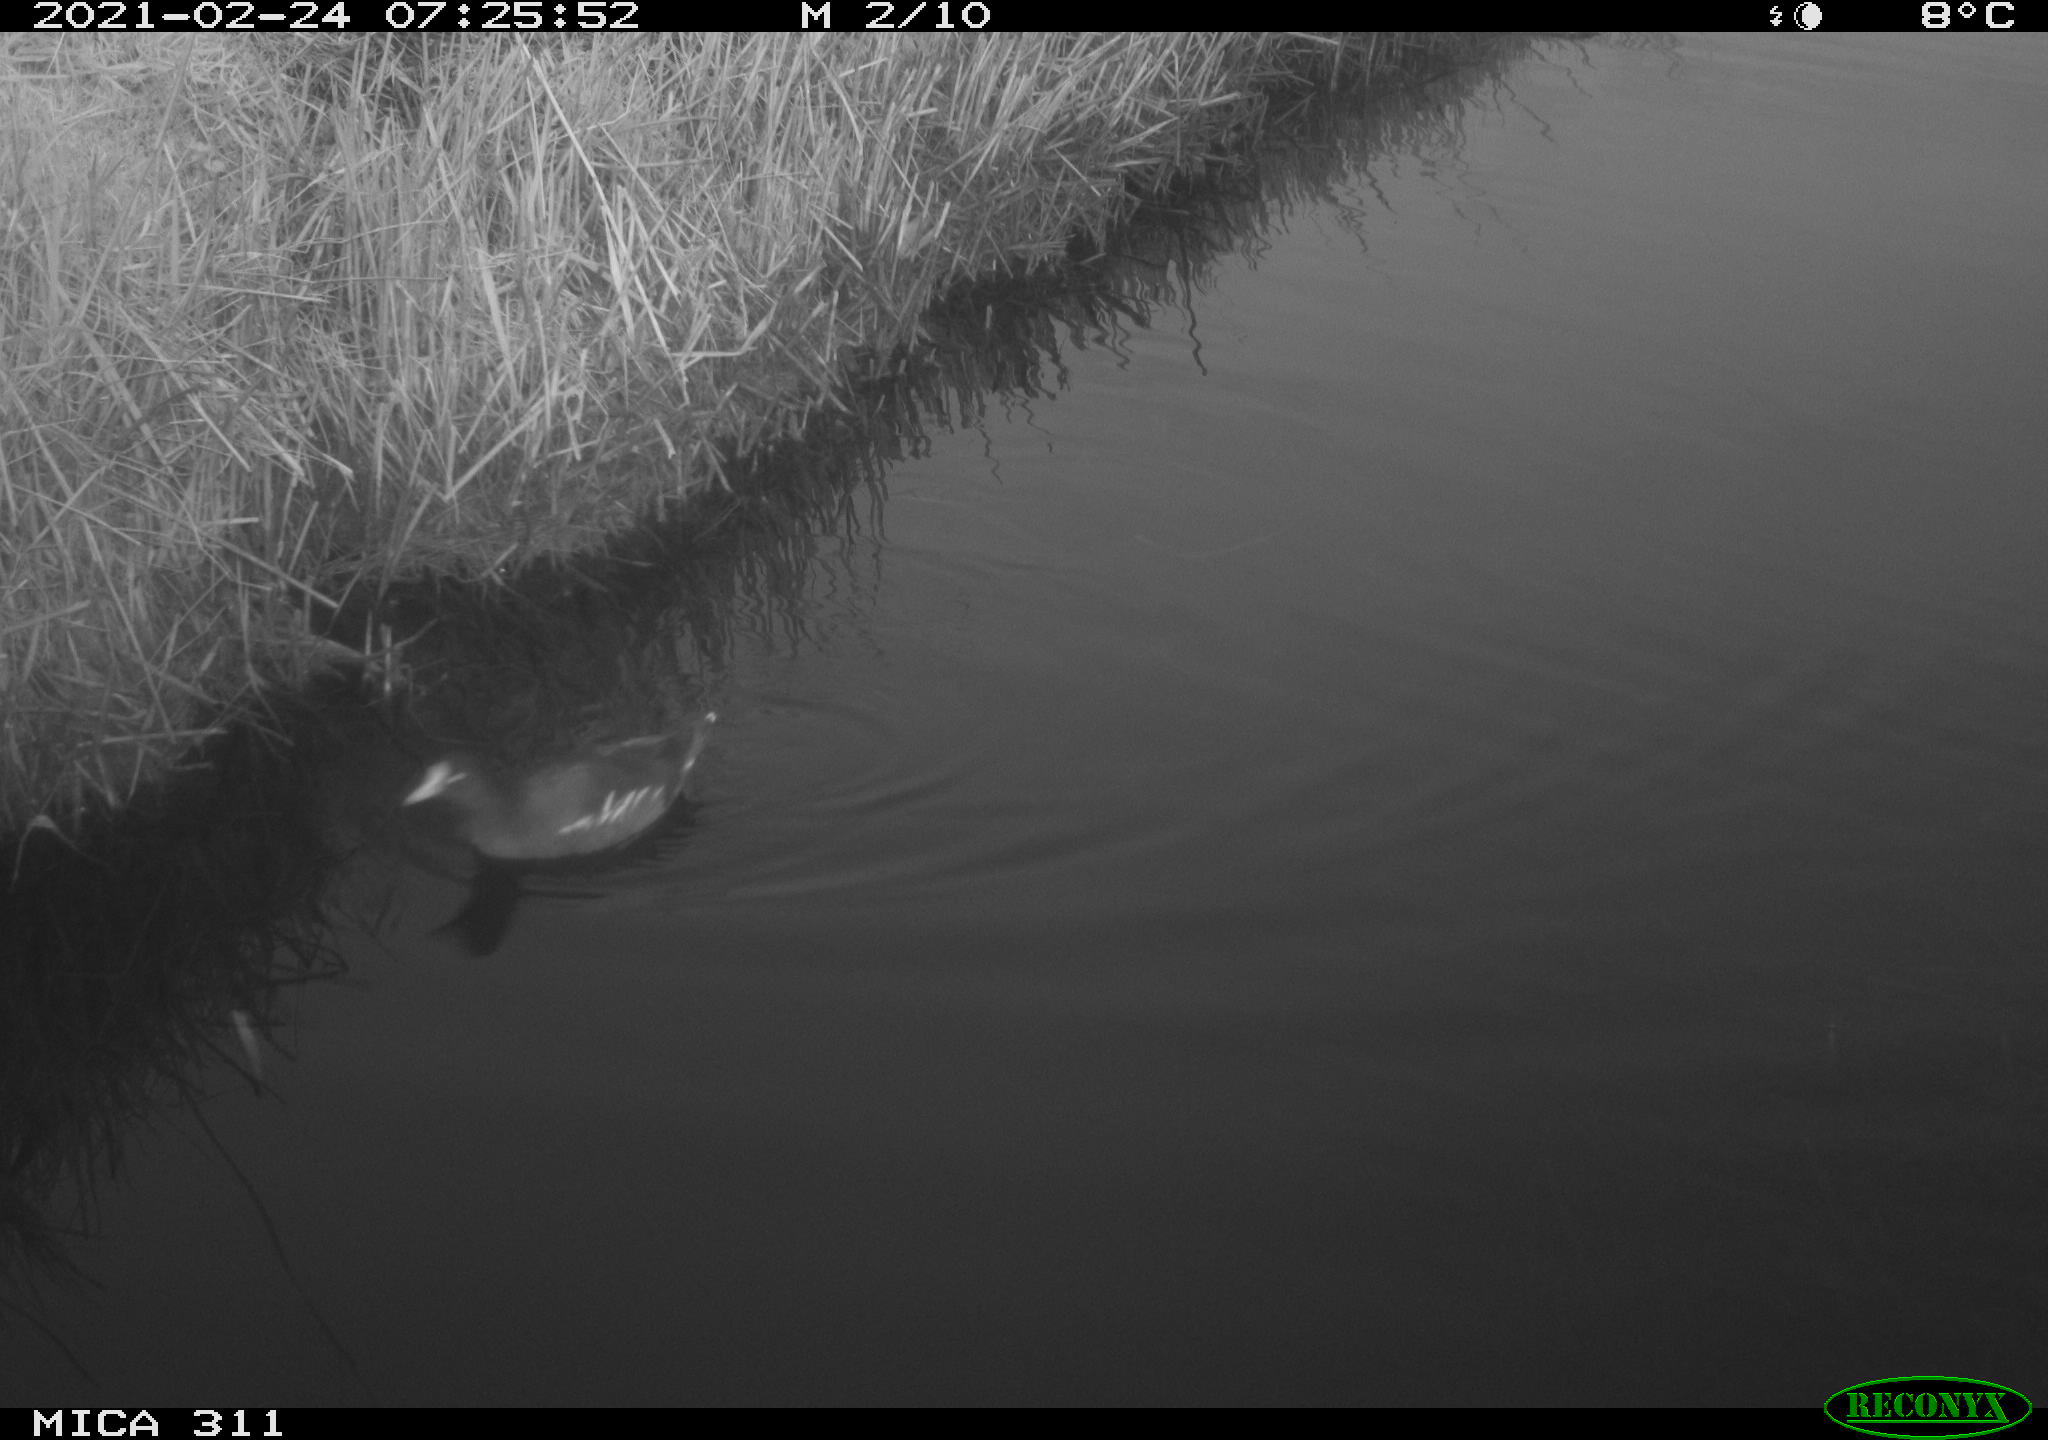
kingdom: Animalia
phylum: Chordata
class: Aves
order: Gruiformes
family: Rallidae
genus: Gallinula
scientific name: Gallinula chloropus
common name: Common moorhen
